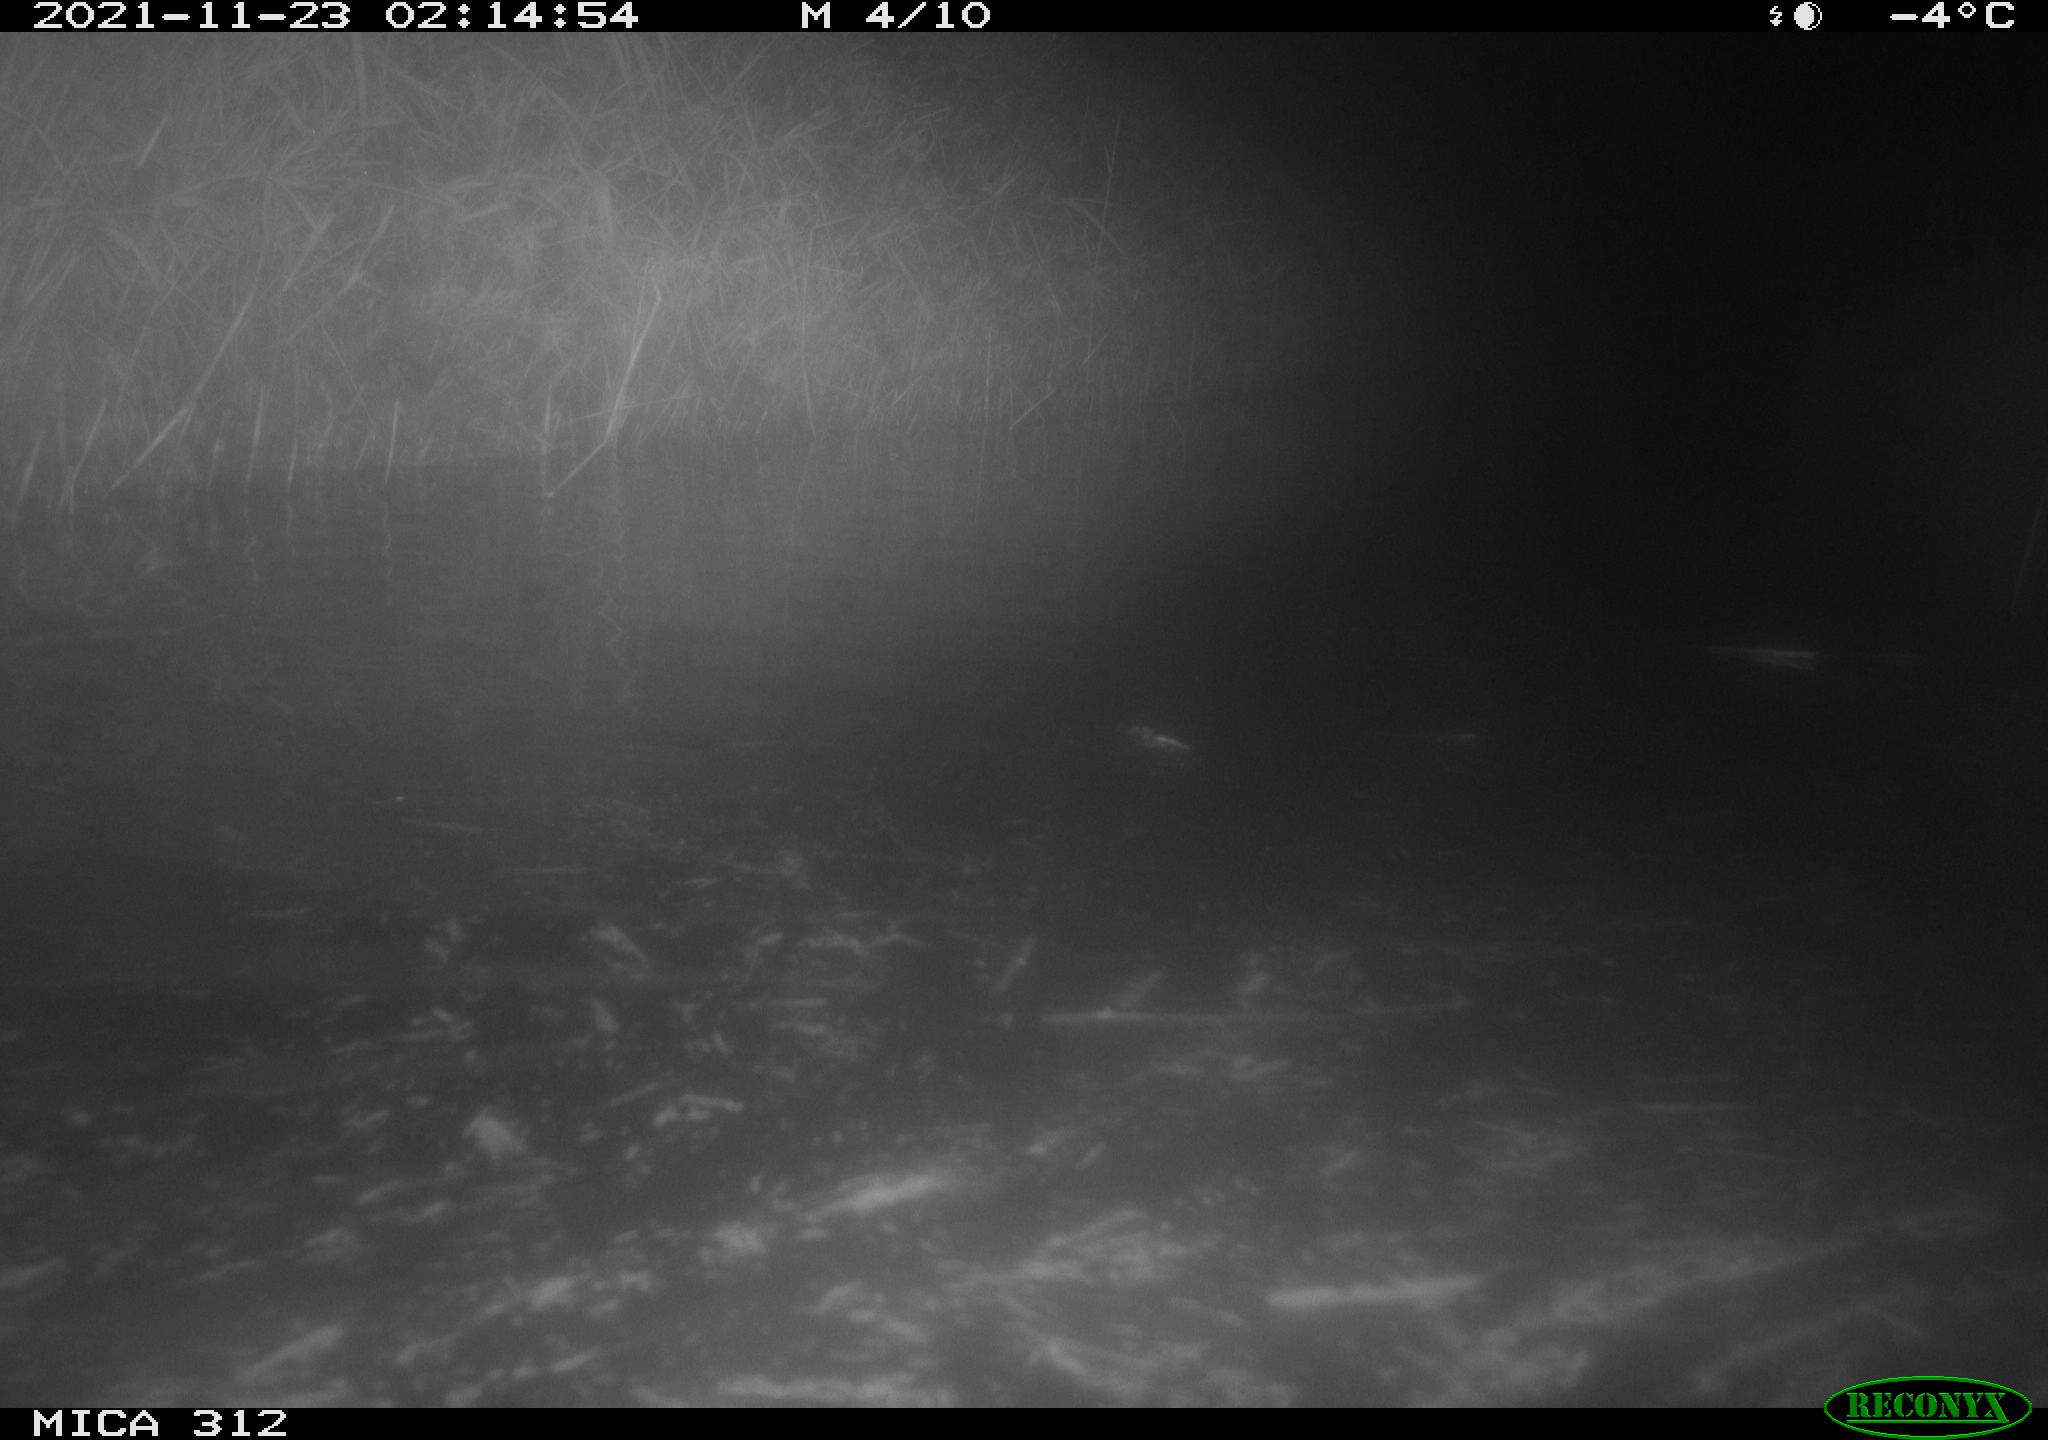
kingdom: Animalia
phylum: Chordata
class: Mammalia
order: Rodentia
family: Muridae
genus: Rattus
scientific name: Rattus norvegicus
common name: Brown rat
